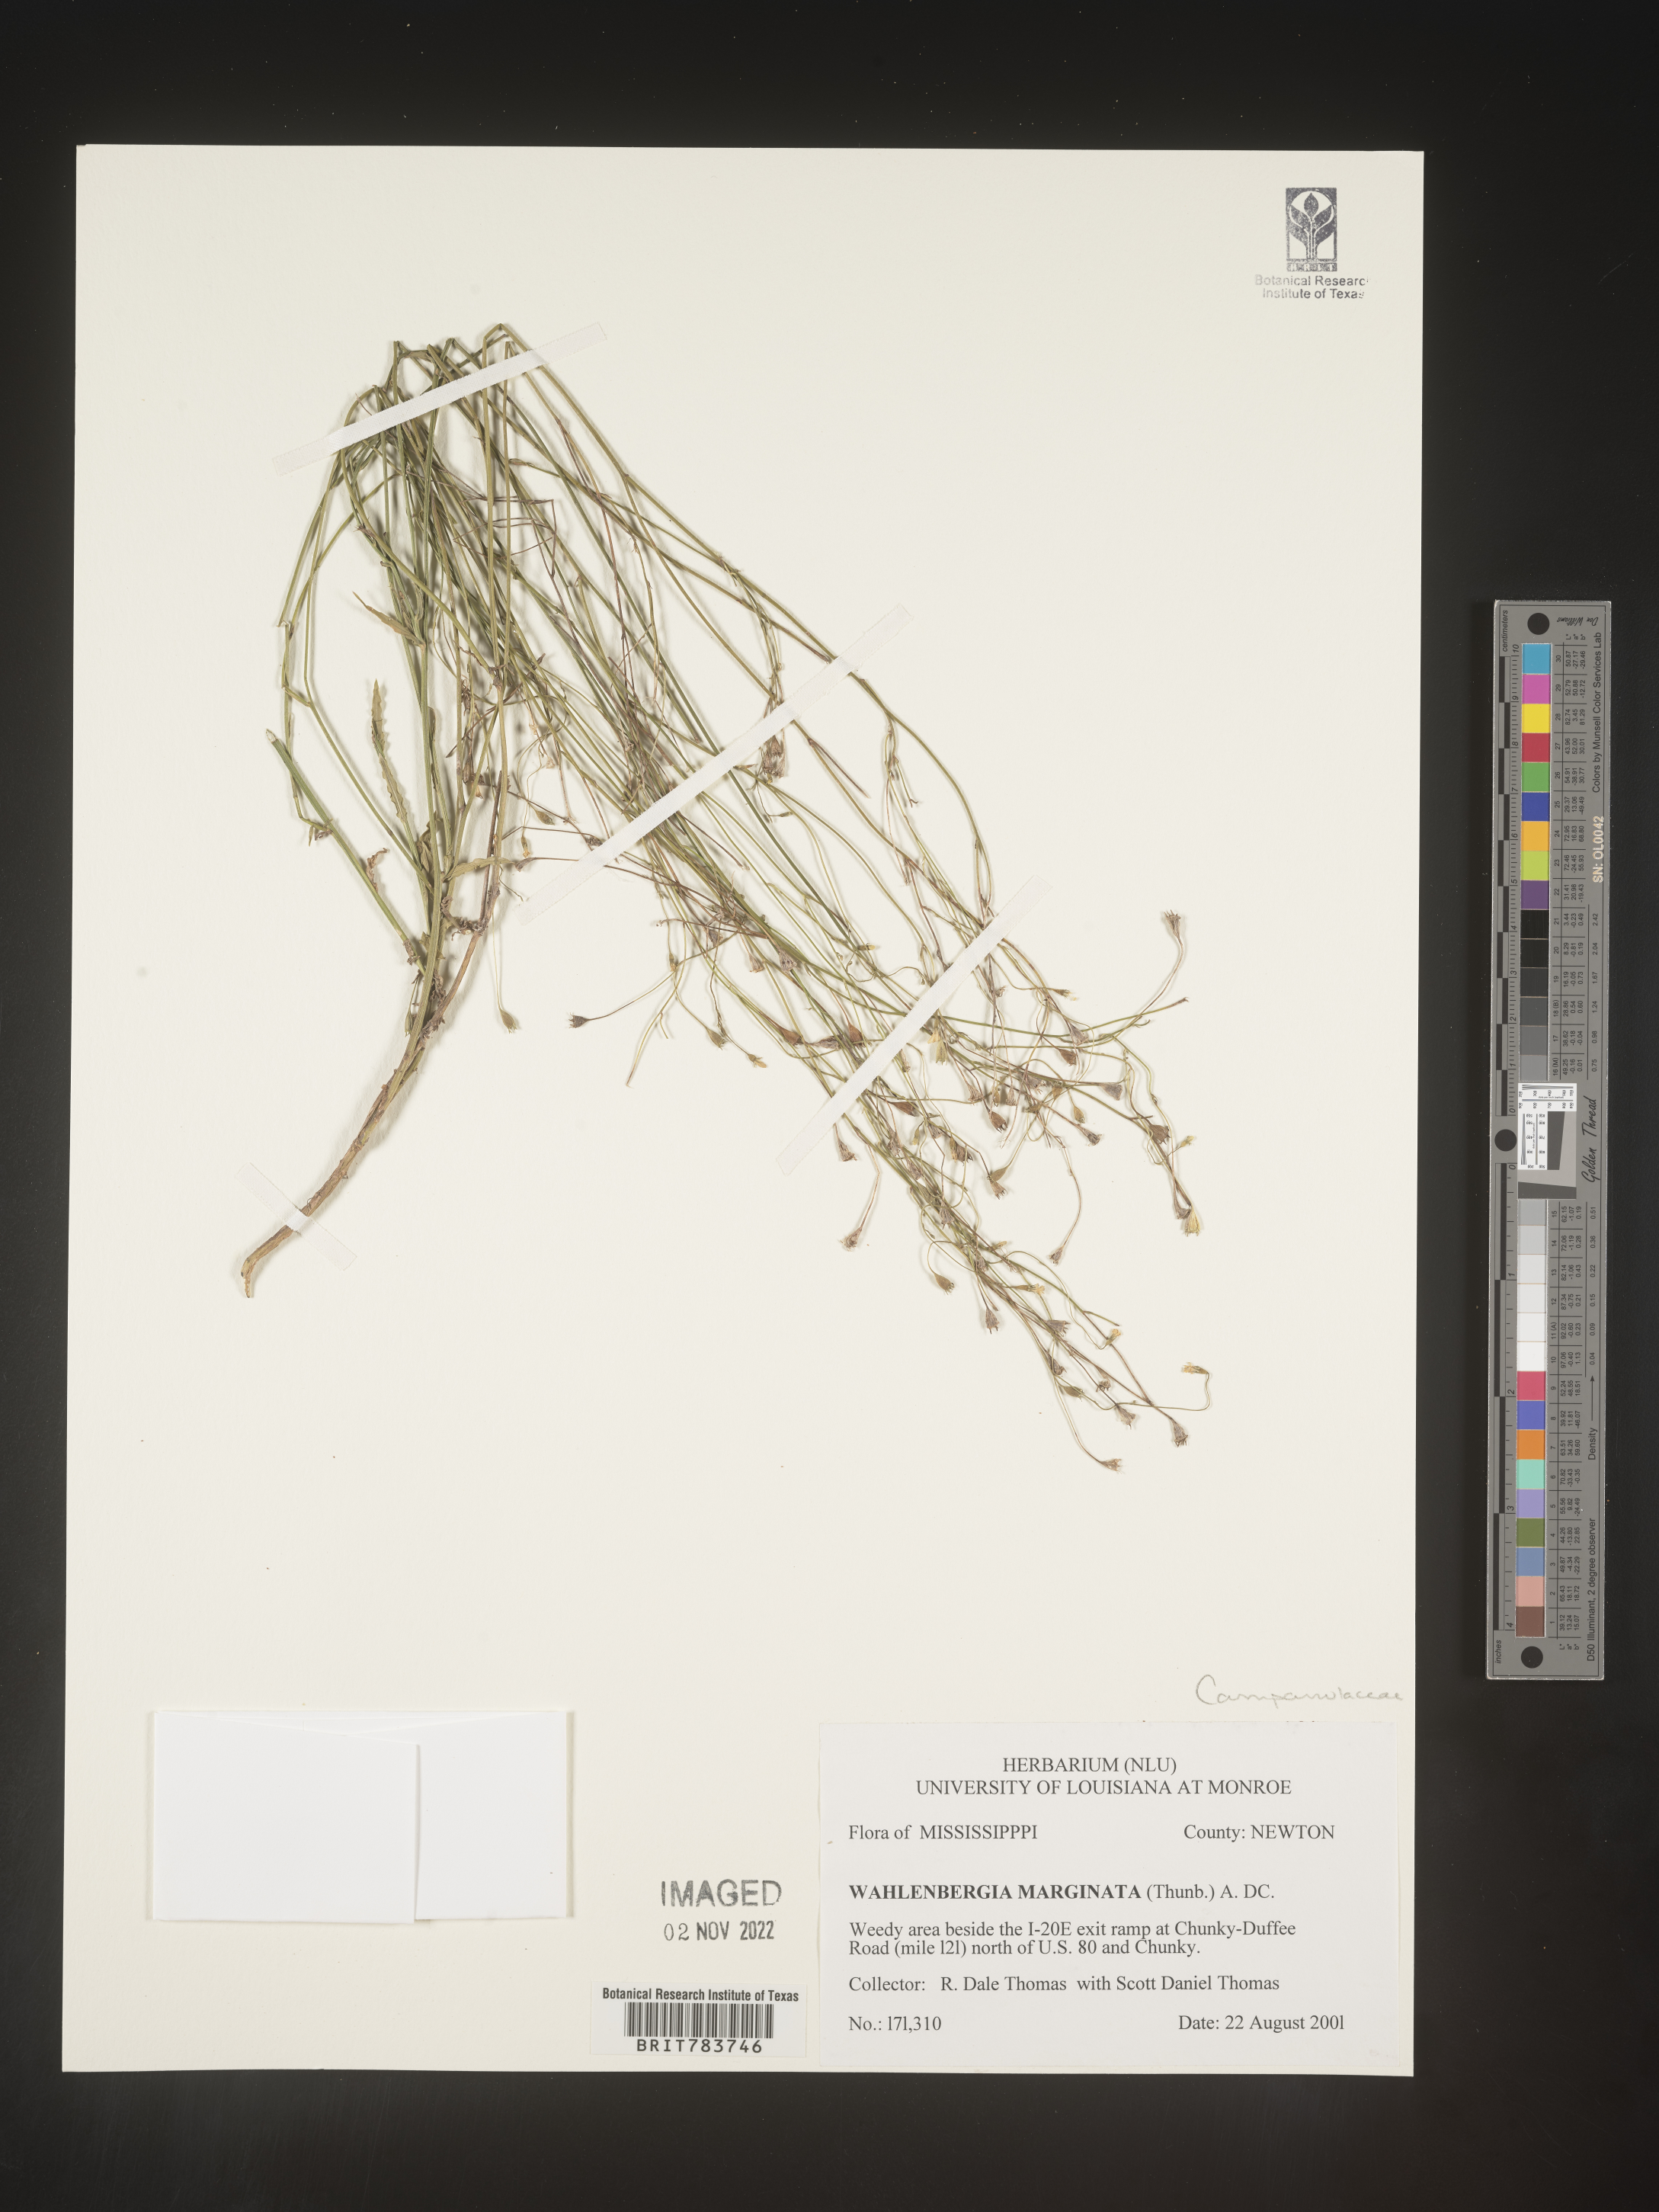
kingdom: Plantae
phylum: Tracheophyta
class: Magnoliopsida
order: Asterales
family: Campanulaceae
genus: Wahlenbergia
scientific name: Wahlenbergia marginata
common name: Southern rockbell
